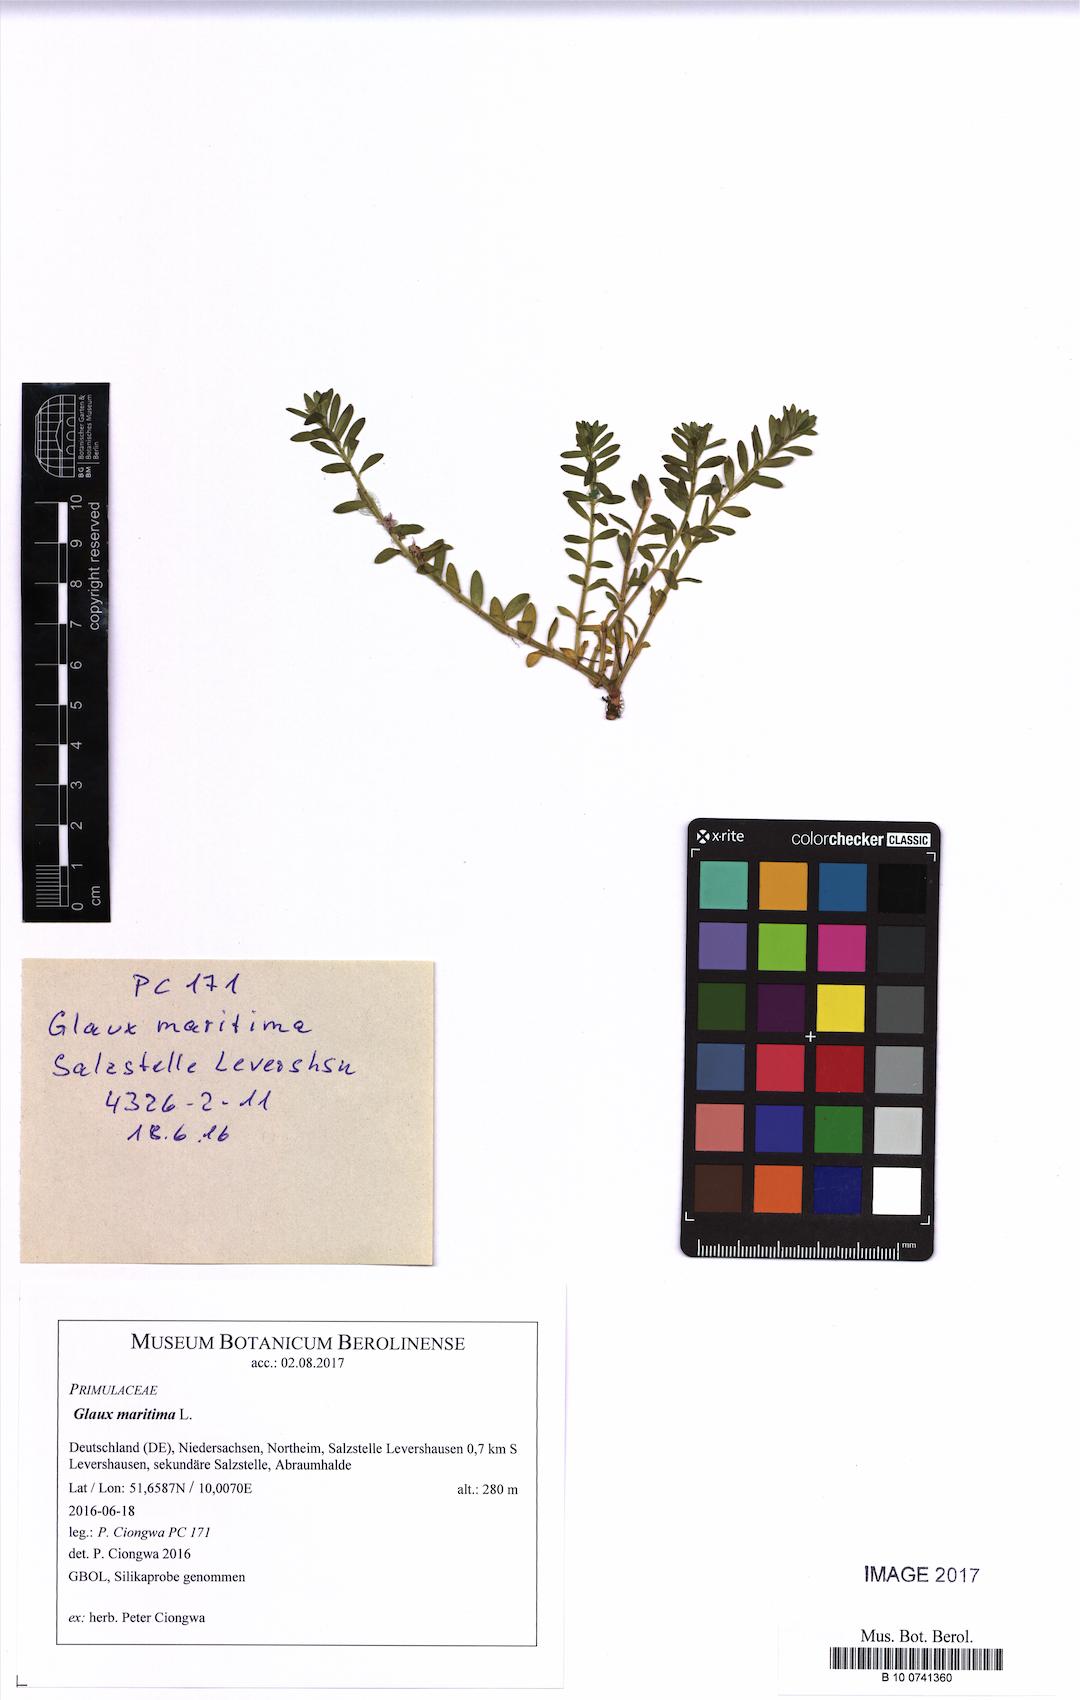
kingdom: Plantae
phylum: Tracheophyta
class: Magnoliopsida
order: Ericales
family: Primulaceae
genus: Lysimachia
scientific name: Lysimachia maritima
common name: Sea milkwort
